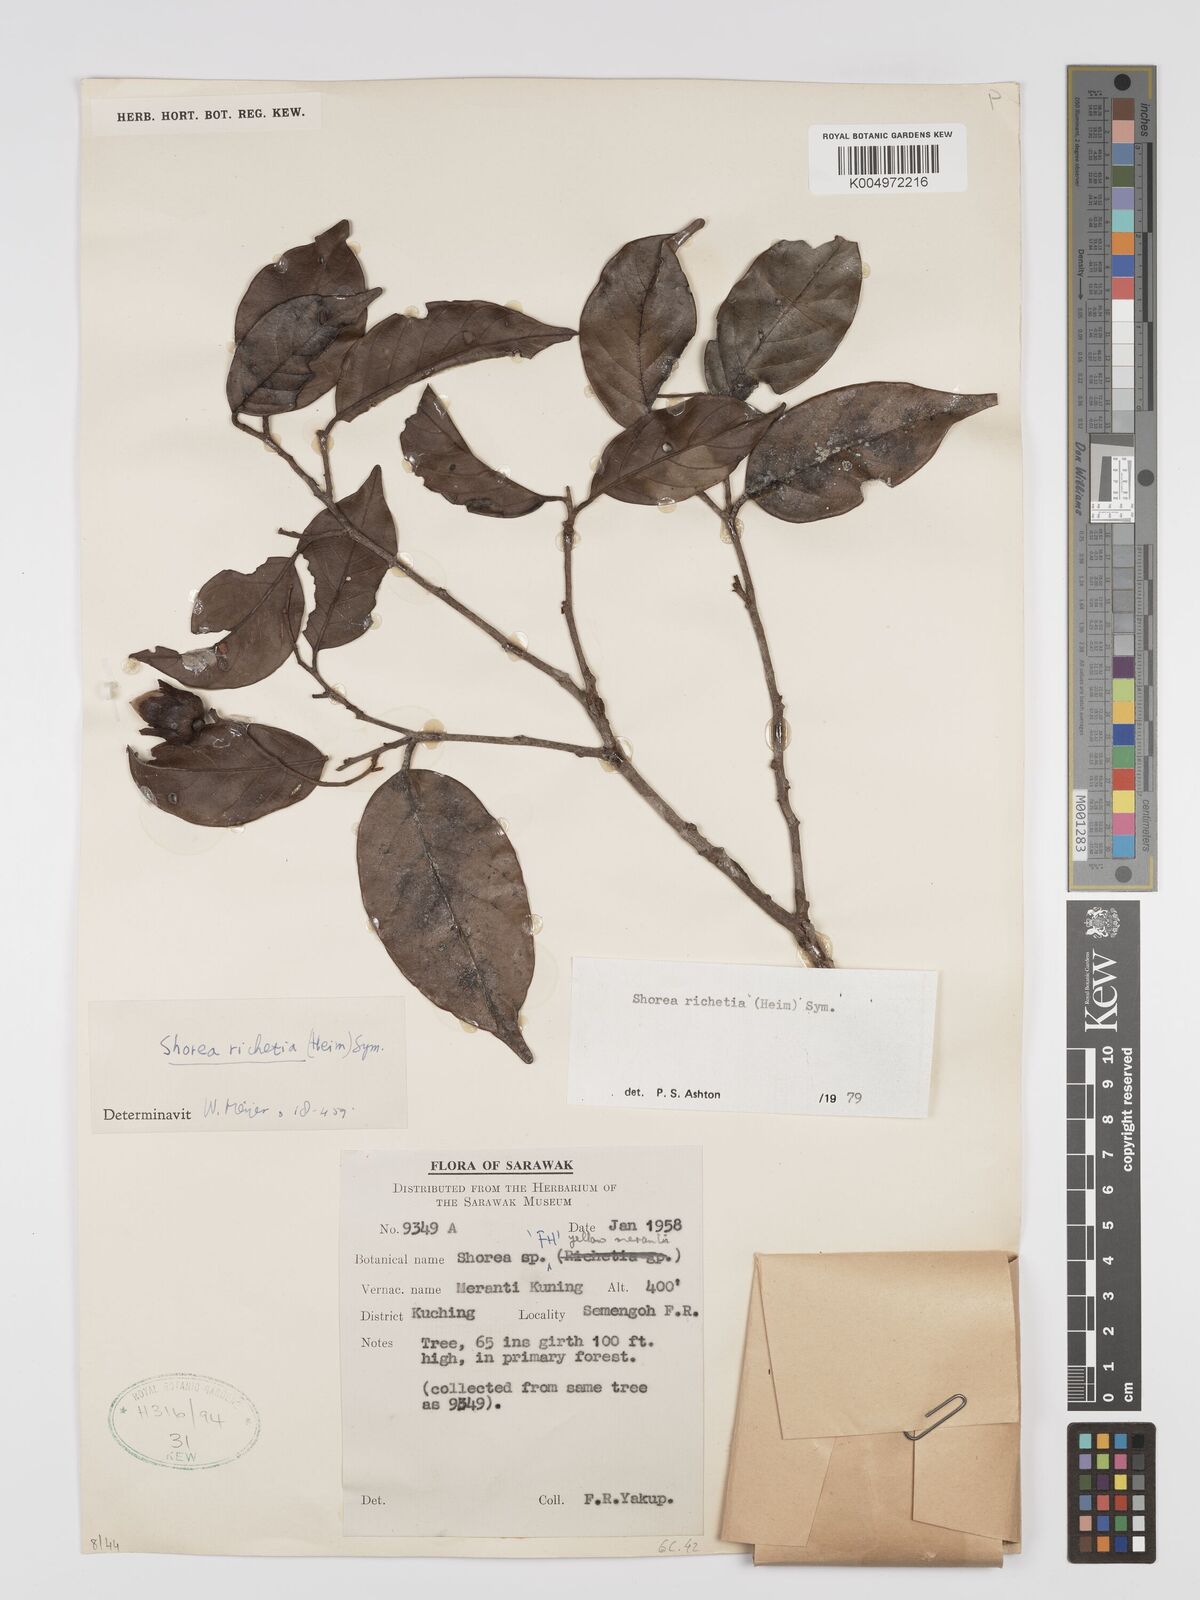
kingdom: Plantae
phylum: Tracheophyta
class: Magnoliopsida
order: Malvales
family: Dipterocarpaceae
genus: Shorea
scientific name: Shorea richetia
